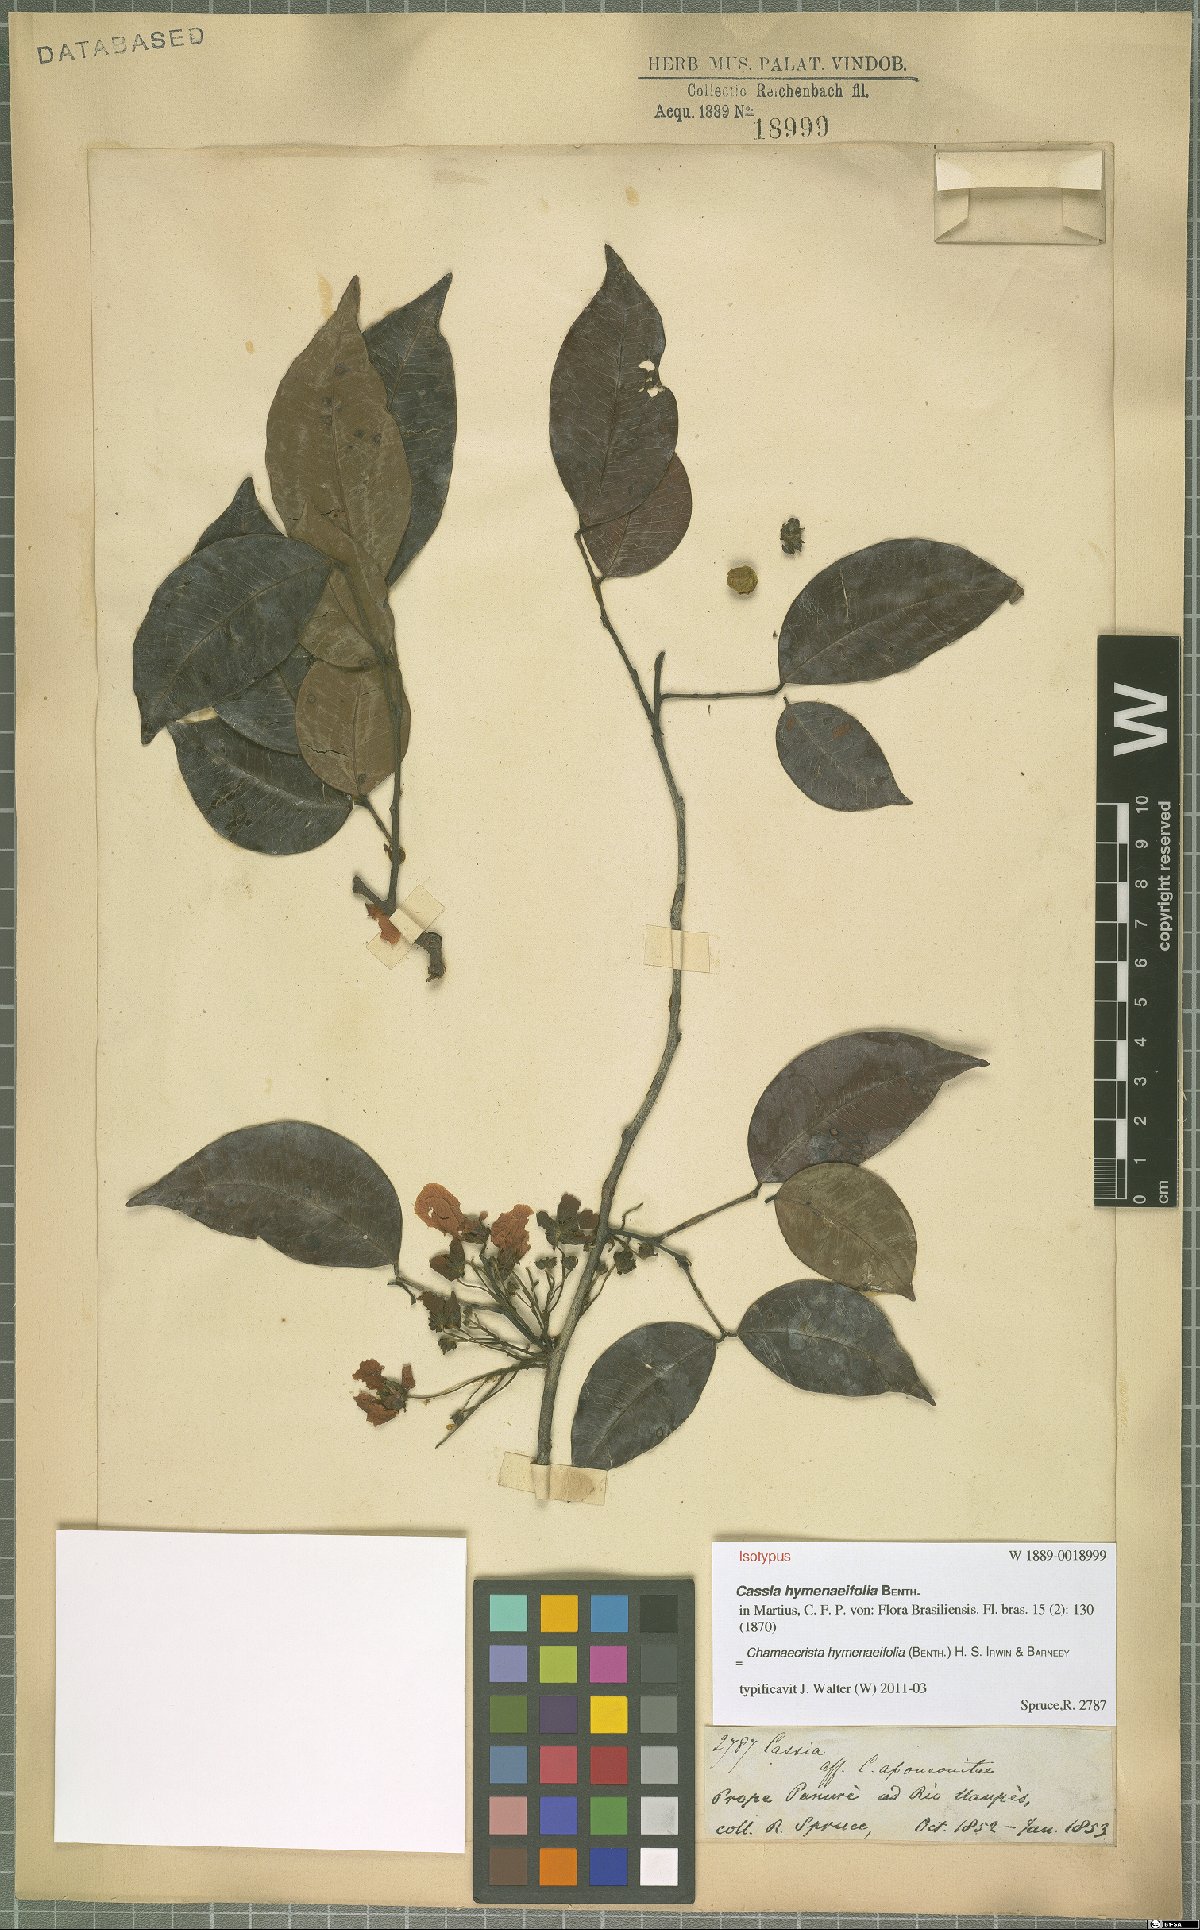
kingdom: Plantae
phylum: Tracheophyta
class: Magnoliopsida
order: Fabales
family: Fabaceae
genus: Chamaecrista
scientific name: Chamaecrista hymenaeifolia
